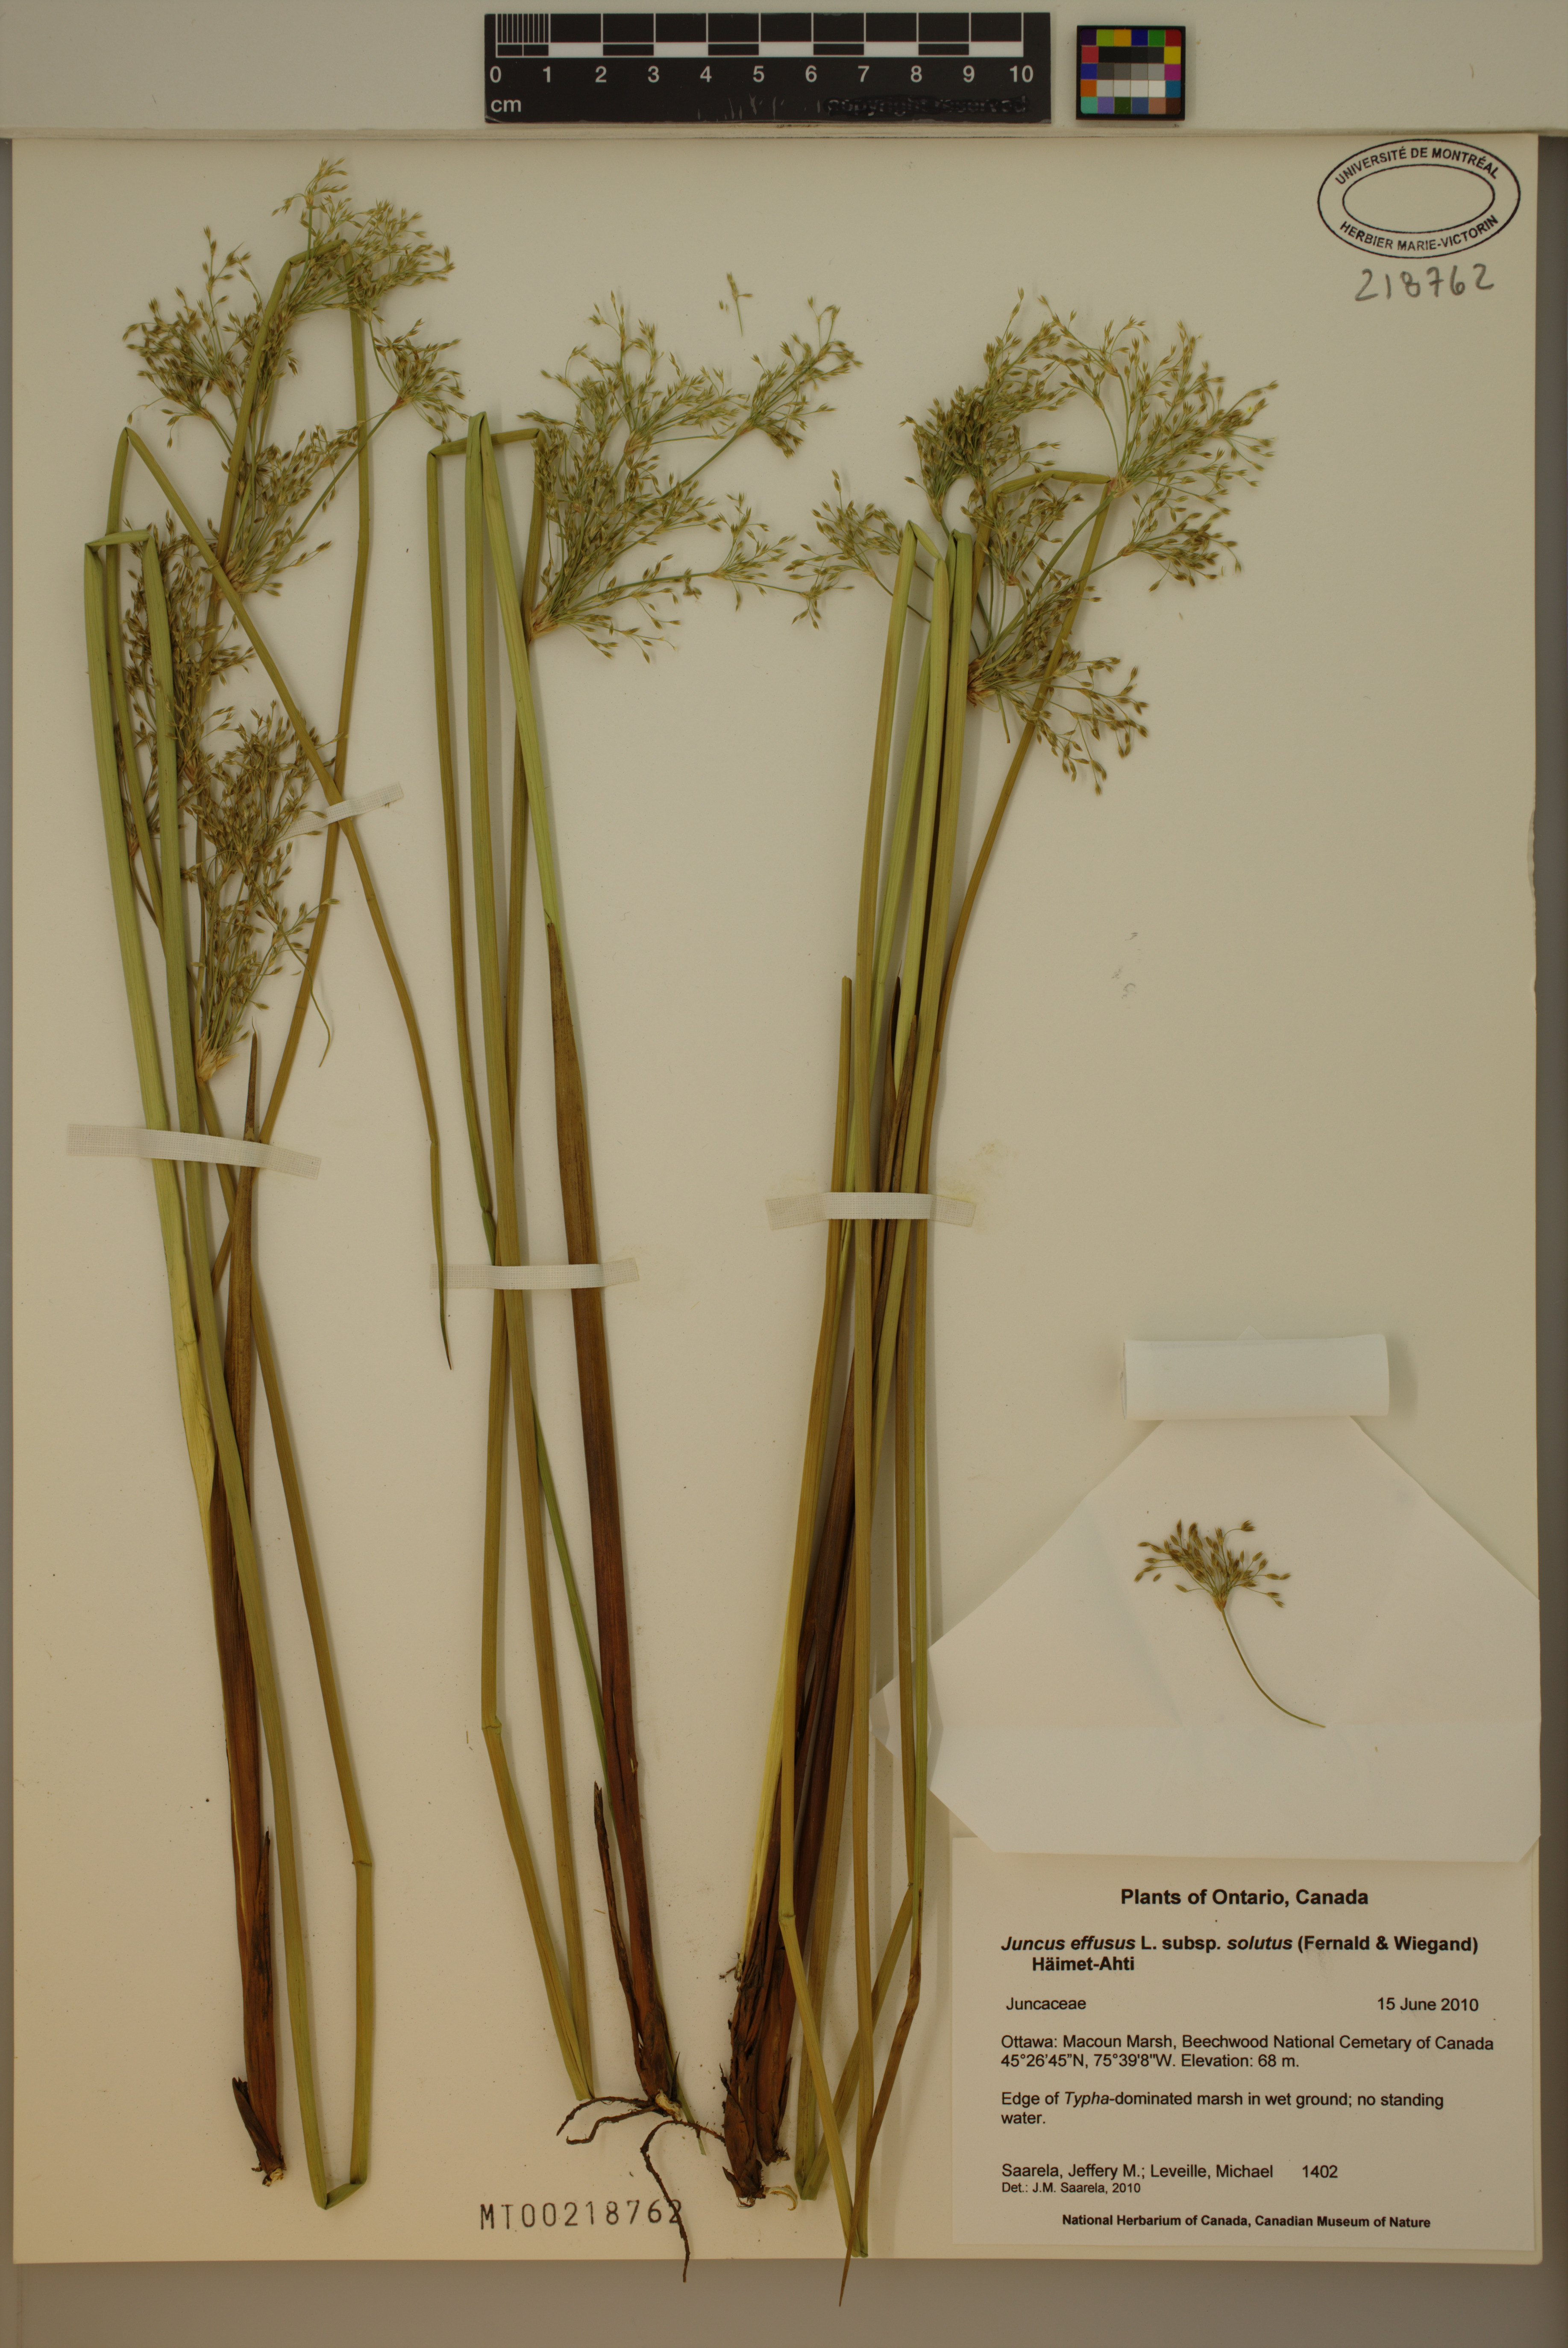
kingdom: Plantae
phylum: Tracheophyta
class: Liliopsida
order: Poales
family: Juncaceae
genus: Juncus
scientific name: Juncus effusus
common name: Soft rush
